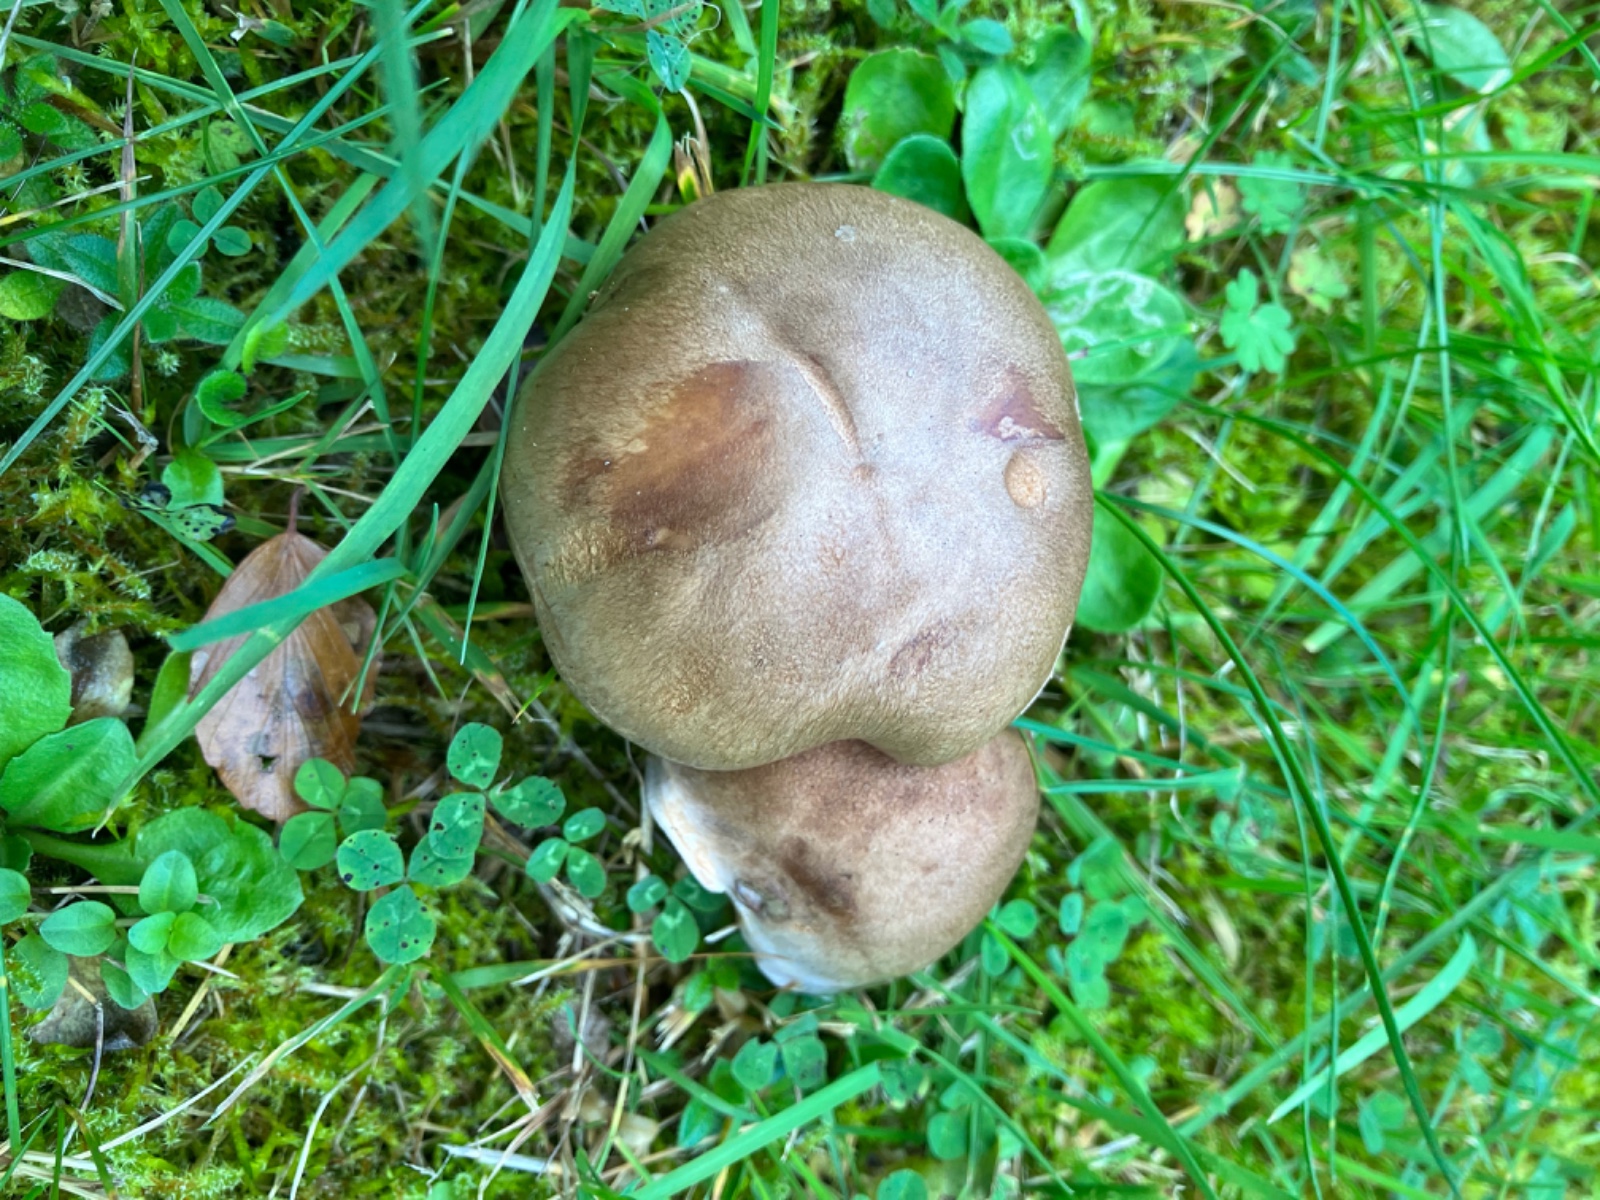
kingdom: Fungi
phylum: Basidiomycota
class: Agaricomycetes
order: Agaricales
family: Cortinariaceae
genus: Phlegmacium
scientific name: Phlegmacium
